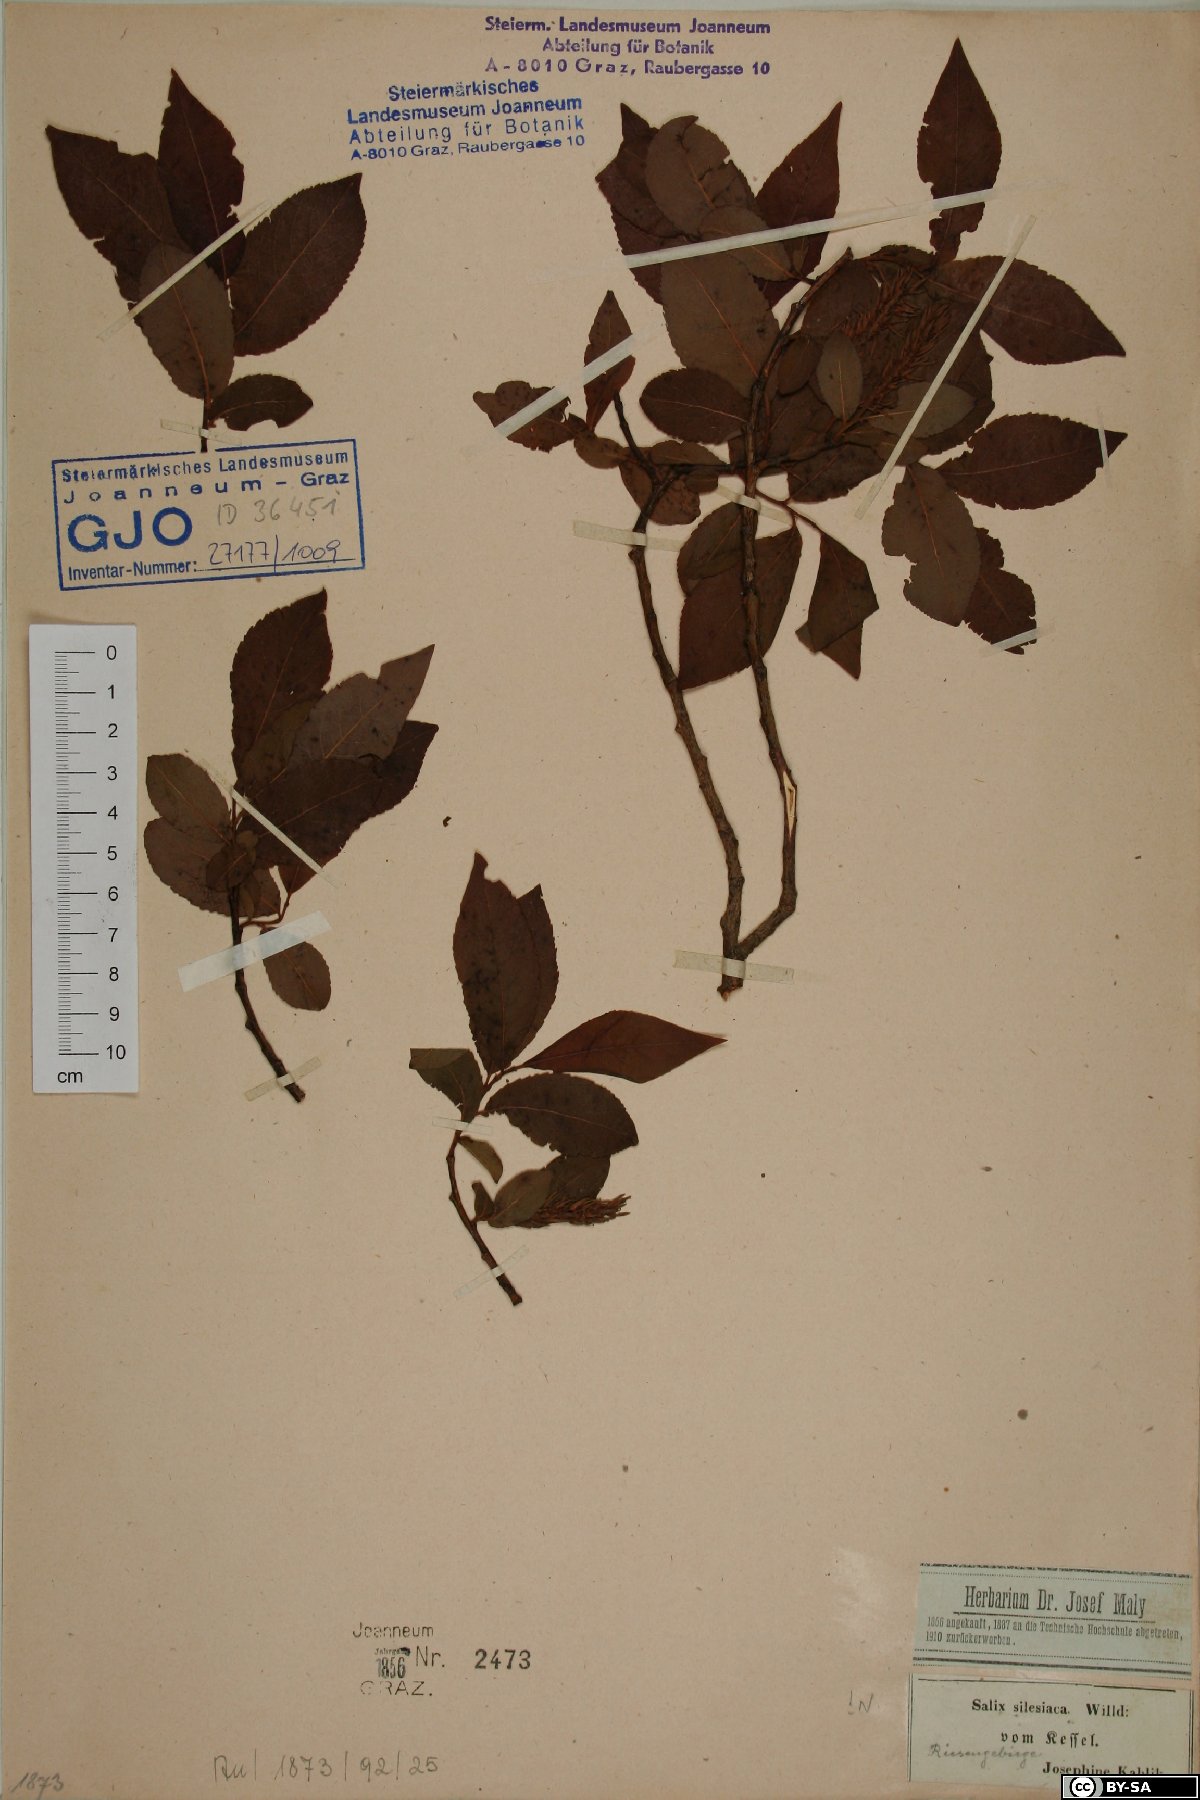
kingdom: Plantae
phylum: Tracheophyta
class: Magnoliopsida
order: Malpighiales
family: Salicaceae
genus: Salix
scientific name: Salix silesiaca
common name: Silesian willow
